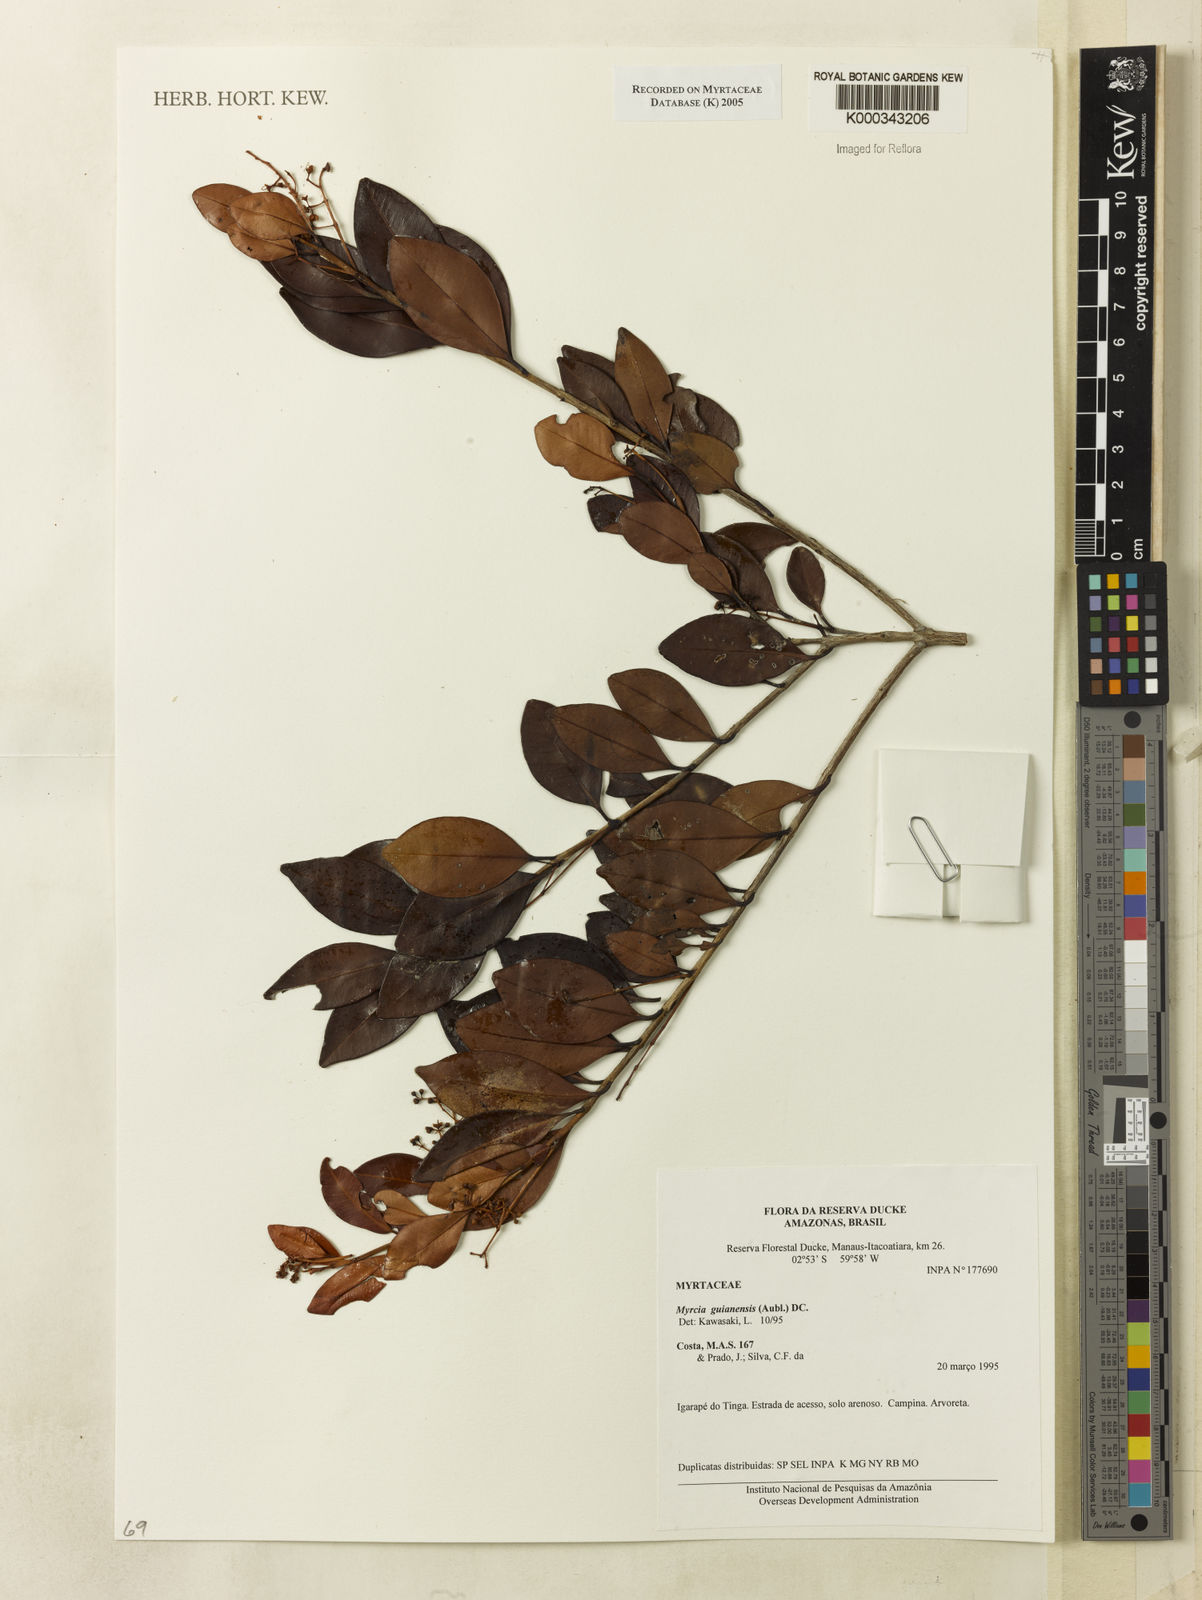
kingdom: Plantae
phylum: Tracheophyta
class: Magnoliopsida
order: Myrtales
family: Myrtaceae
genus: Myrcia
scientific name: Myrcia guianensis
